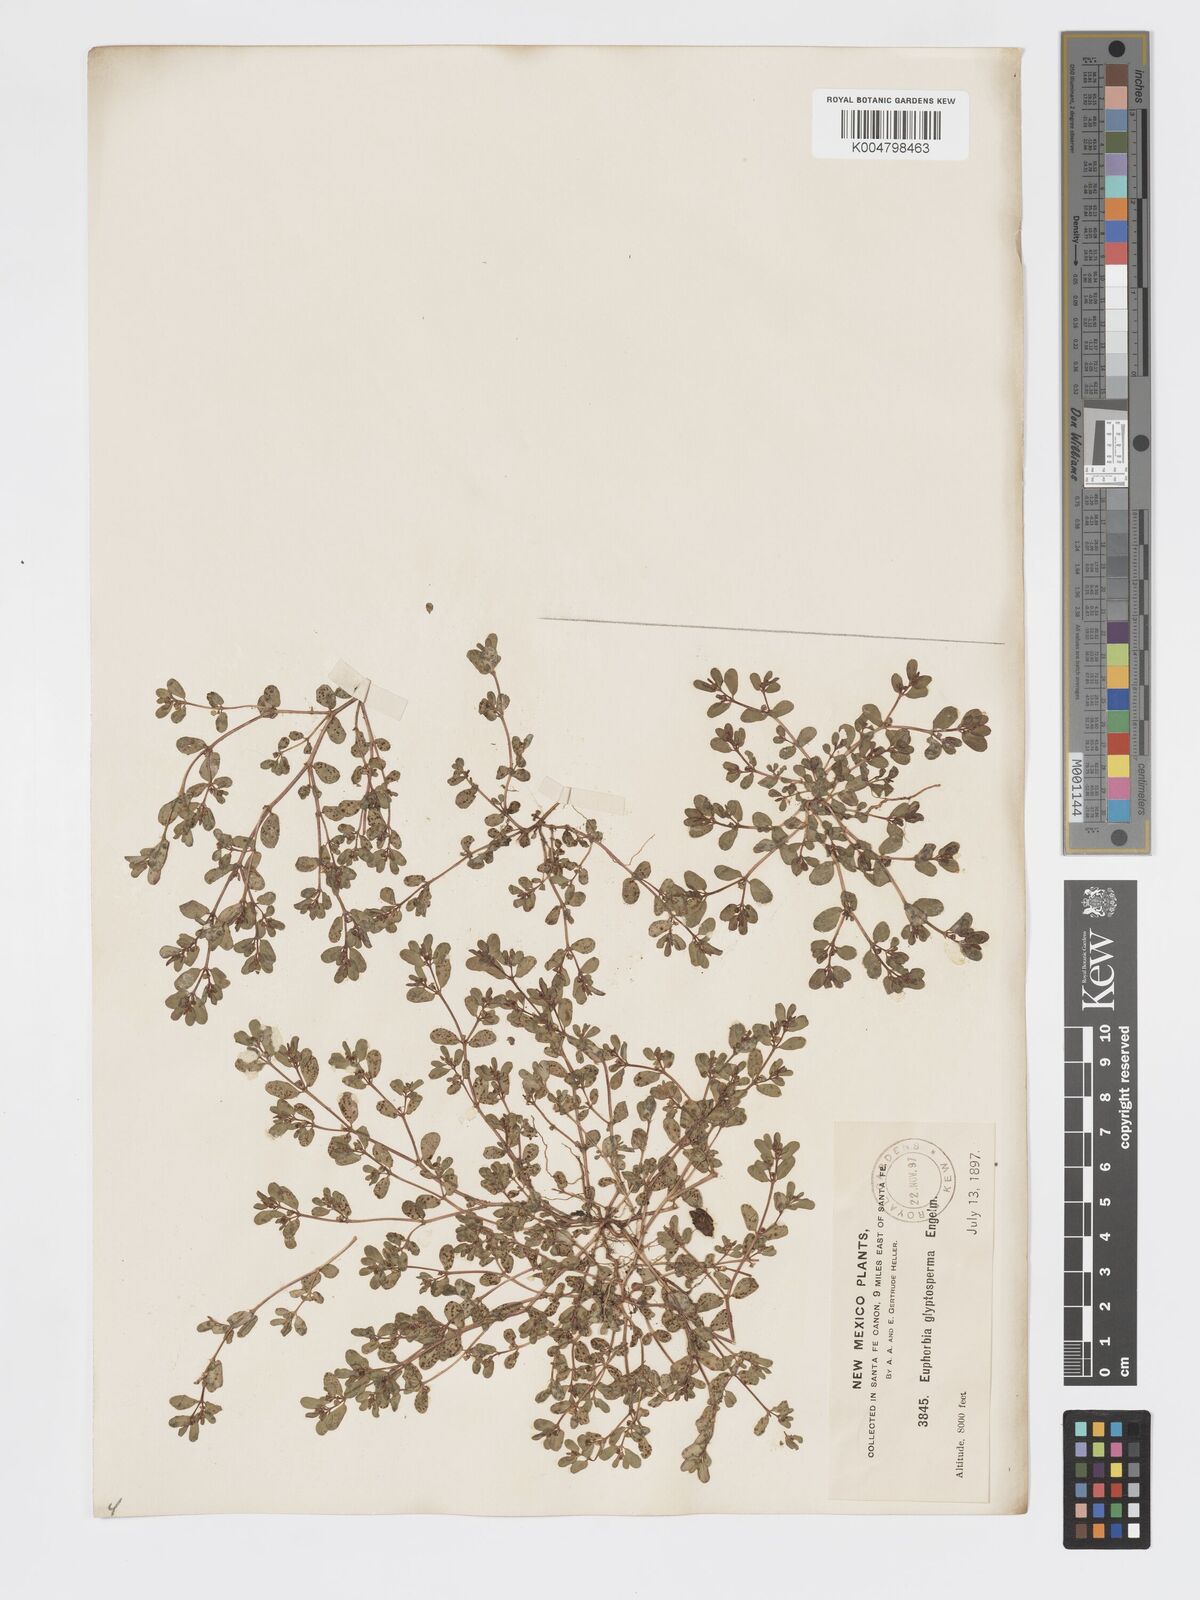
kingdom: Plantae
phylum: Tracheophyta
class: Magnoliopsida
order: Malpighiales
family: Euphorbiaceae
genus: Euphorbia
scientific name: Euphorbia glyptosperma
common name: Corrugate-seeded spurge
